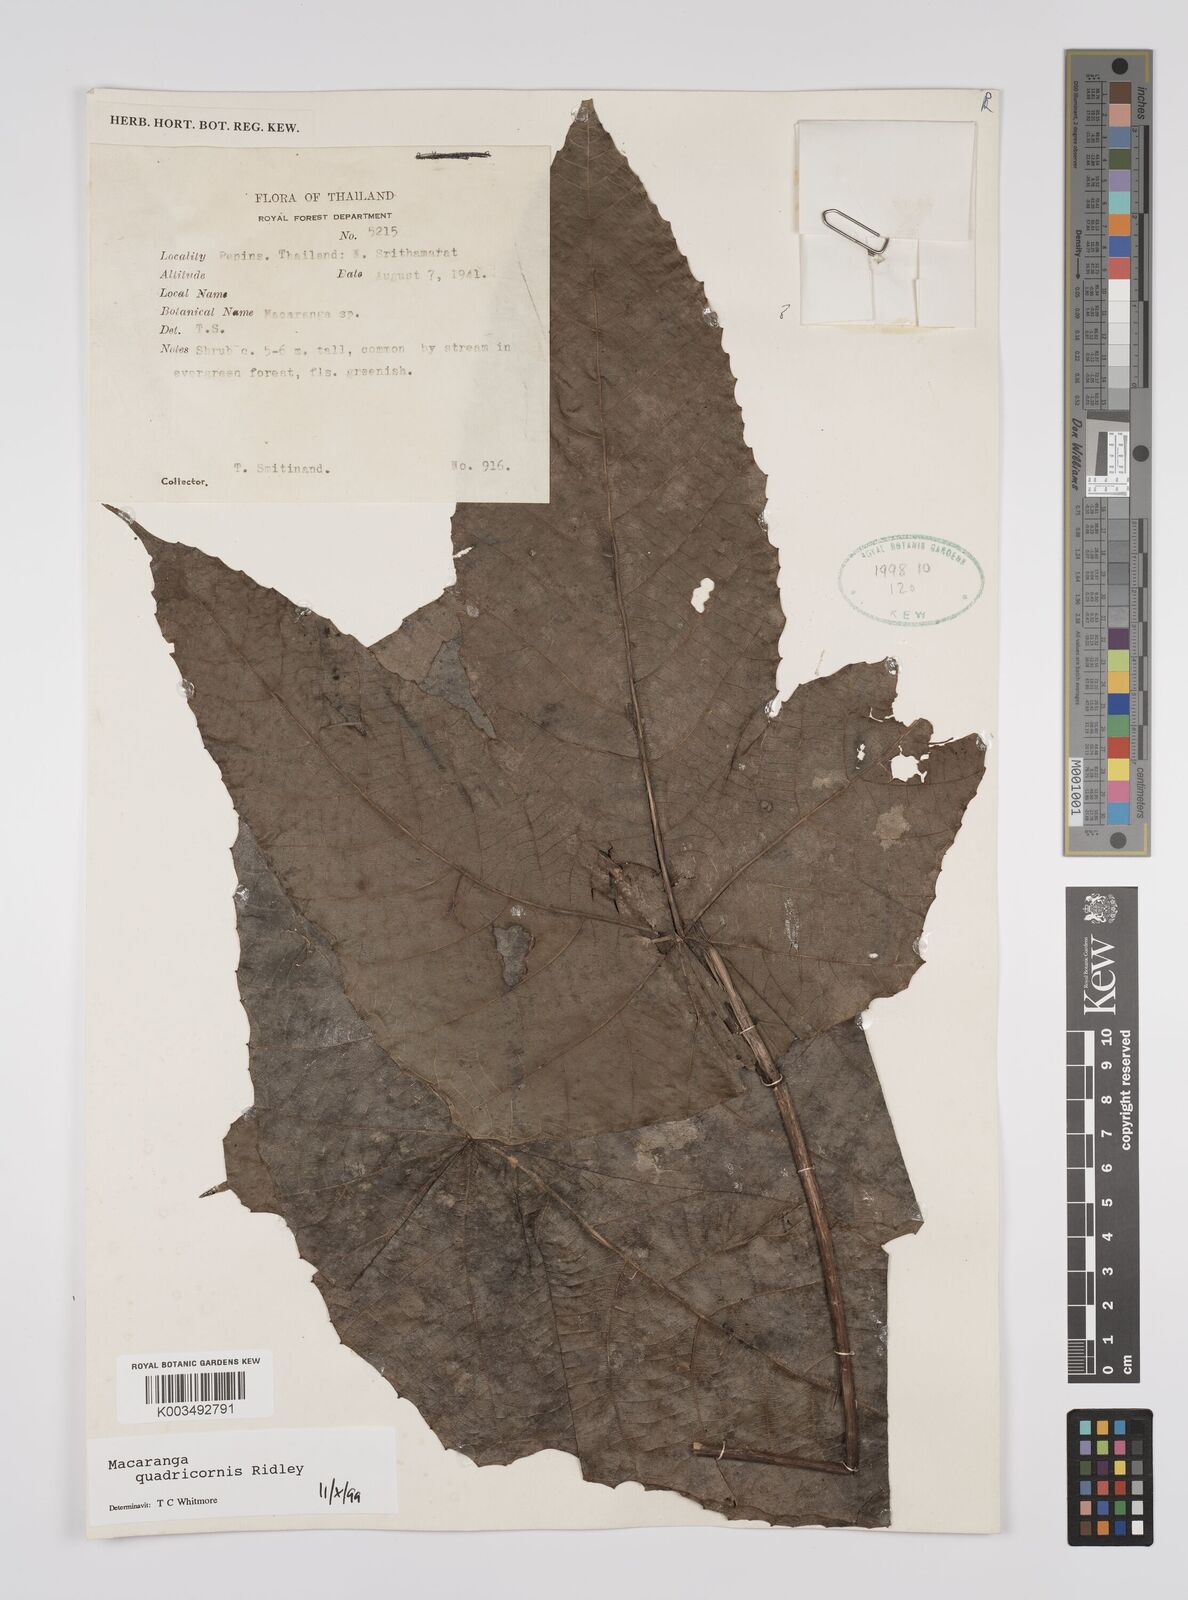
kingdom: Plantae
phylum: Tracheophyta
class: Magnoliopsida
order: Malpighiales
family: Euphorbiaceae
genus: Macaranga
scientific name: Macaranga triloba
